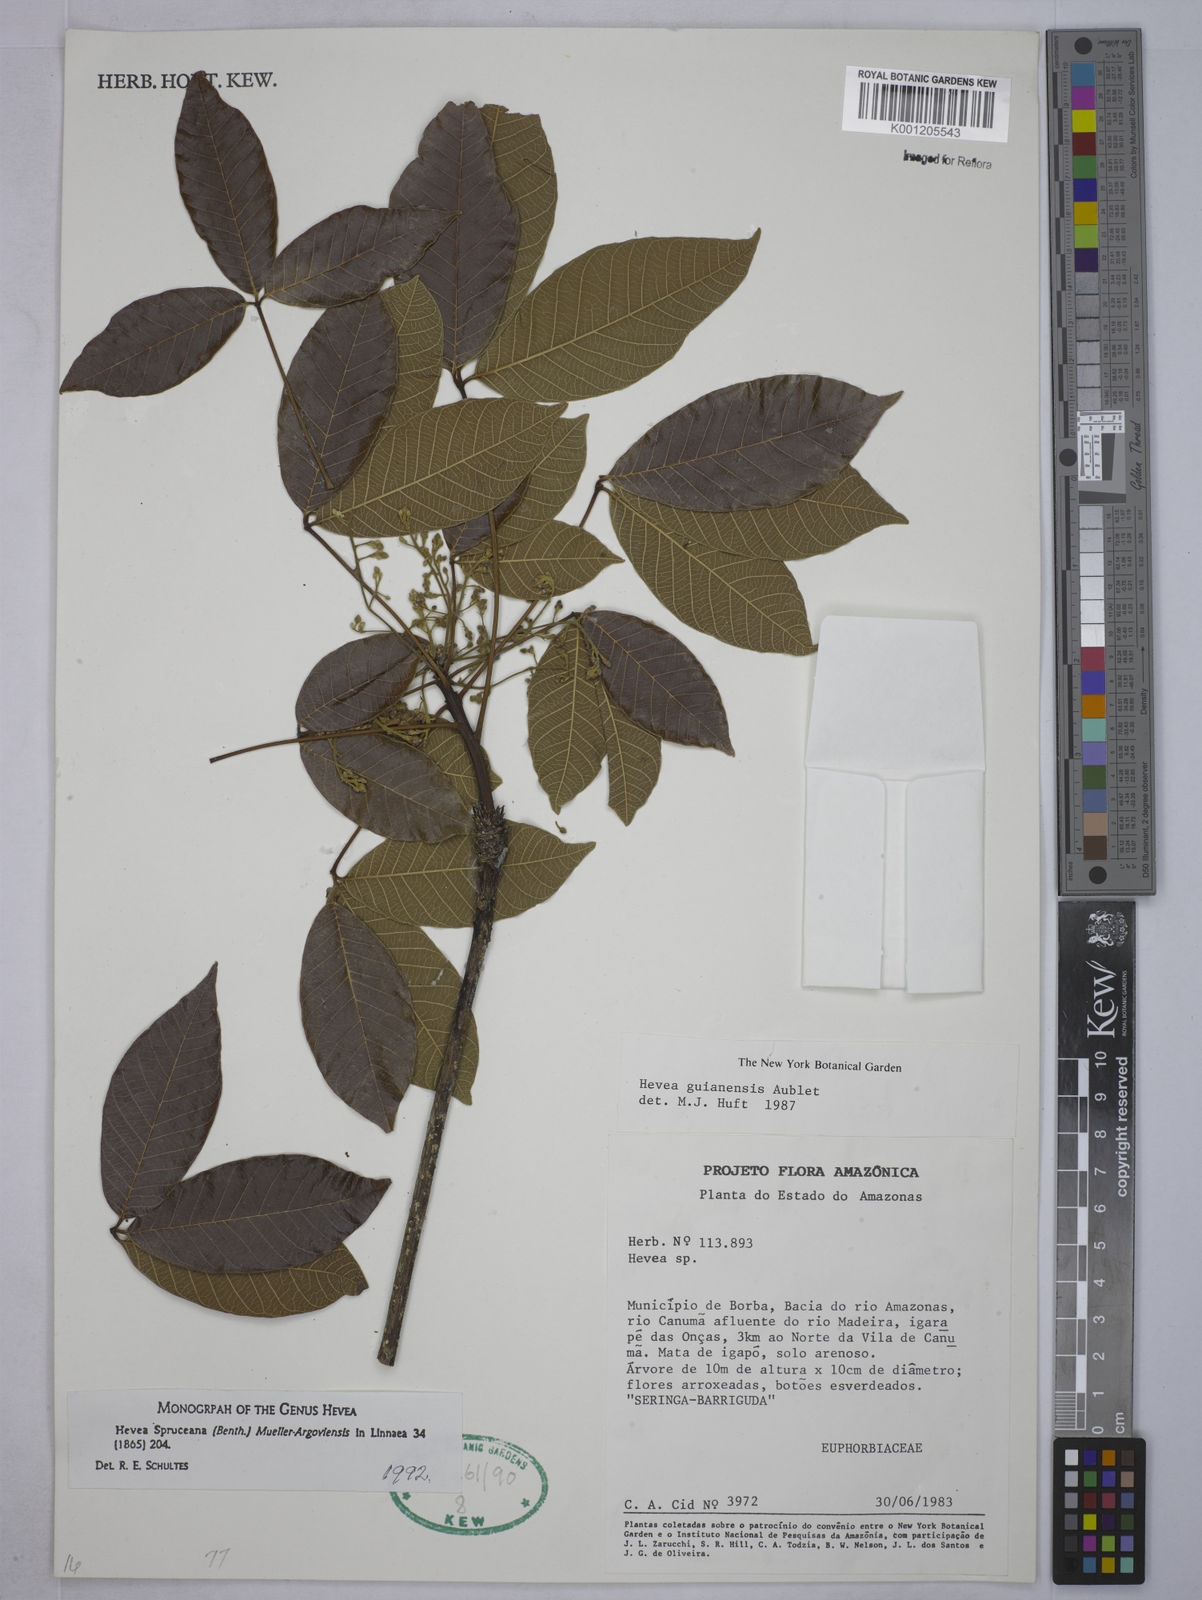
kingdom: Plantae
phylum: Tracheophyta
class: Magnoliopsida
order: Malpighiales
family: Euphorbiaceae
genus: Hevea
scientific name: Hevea
